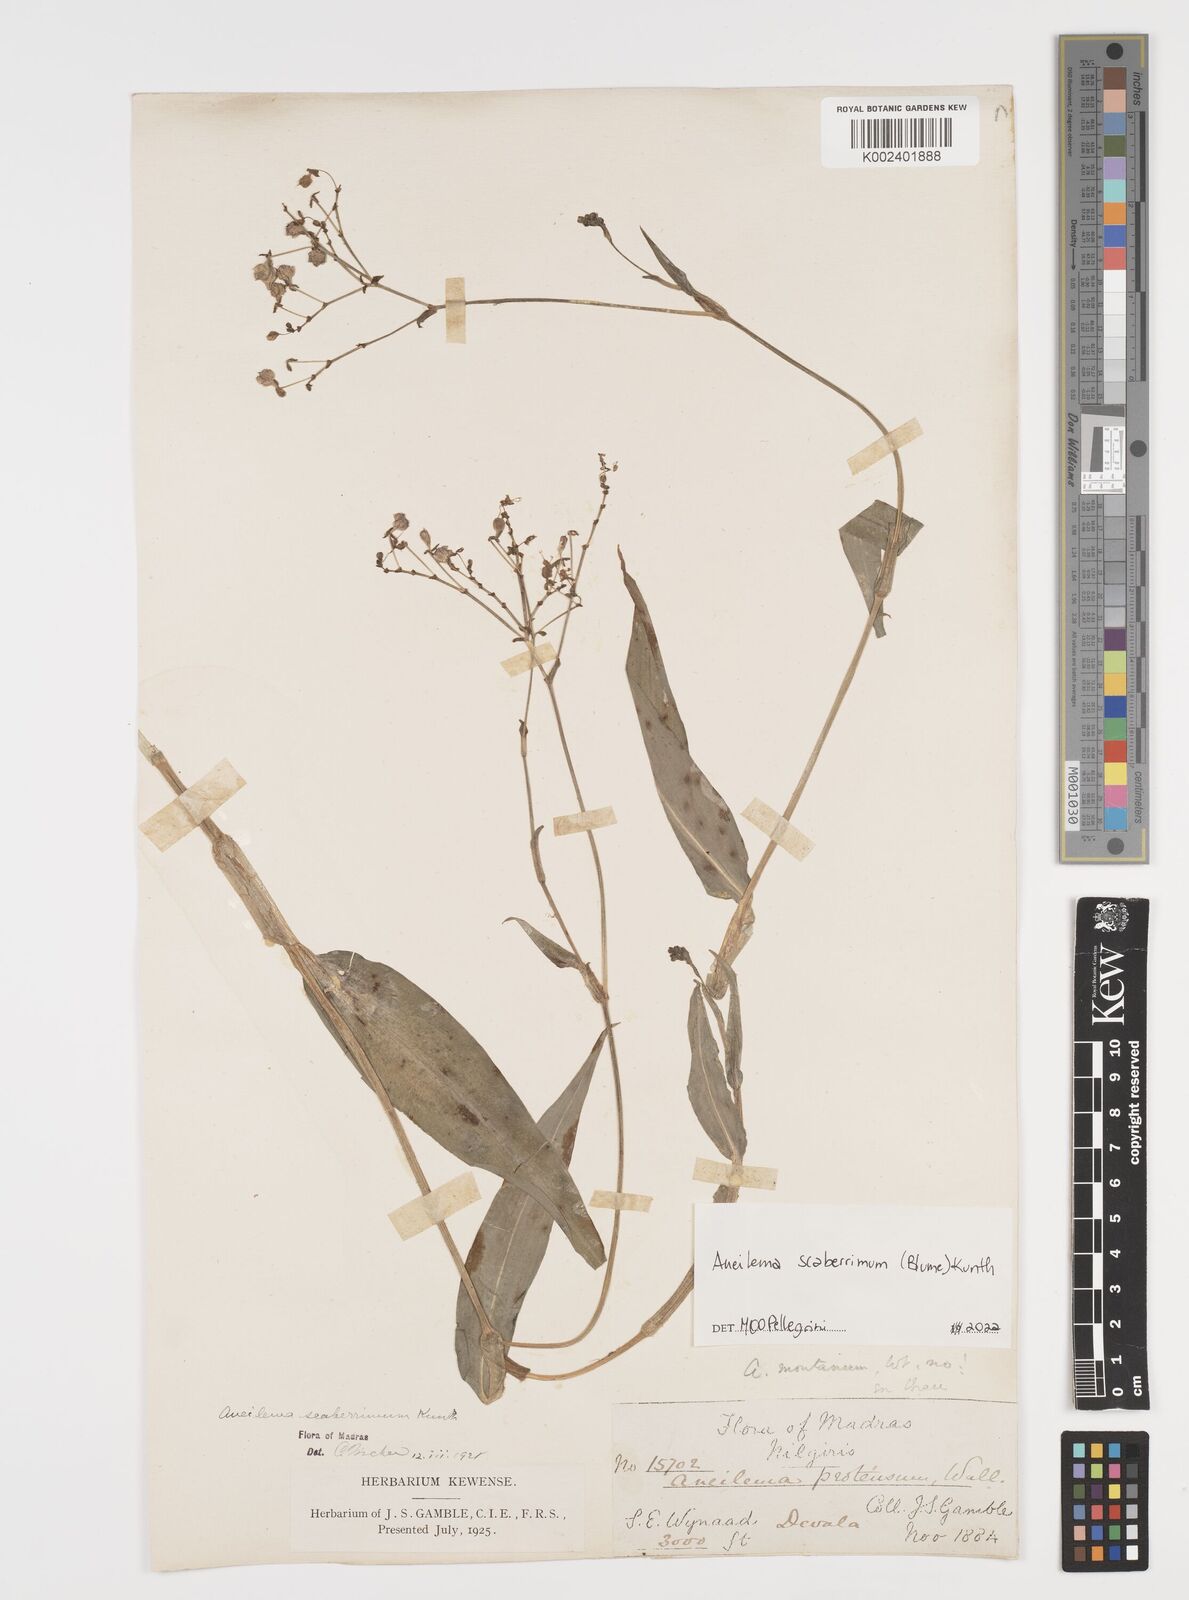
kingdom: Plantae
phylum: Tracheophyta
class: Liliopsida
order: Commelinales
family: Commelinaceae
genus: Rhopalephora
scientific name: Rhopalephora scaberrima
